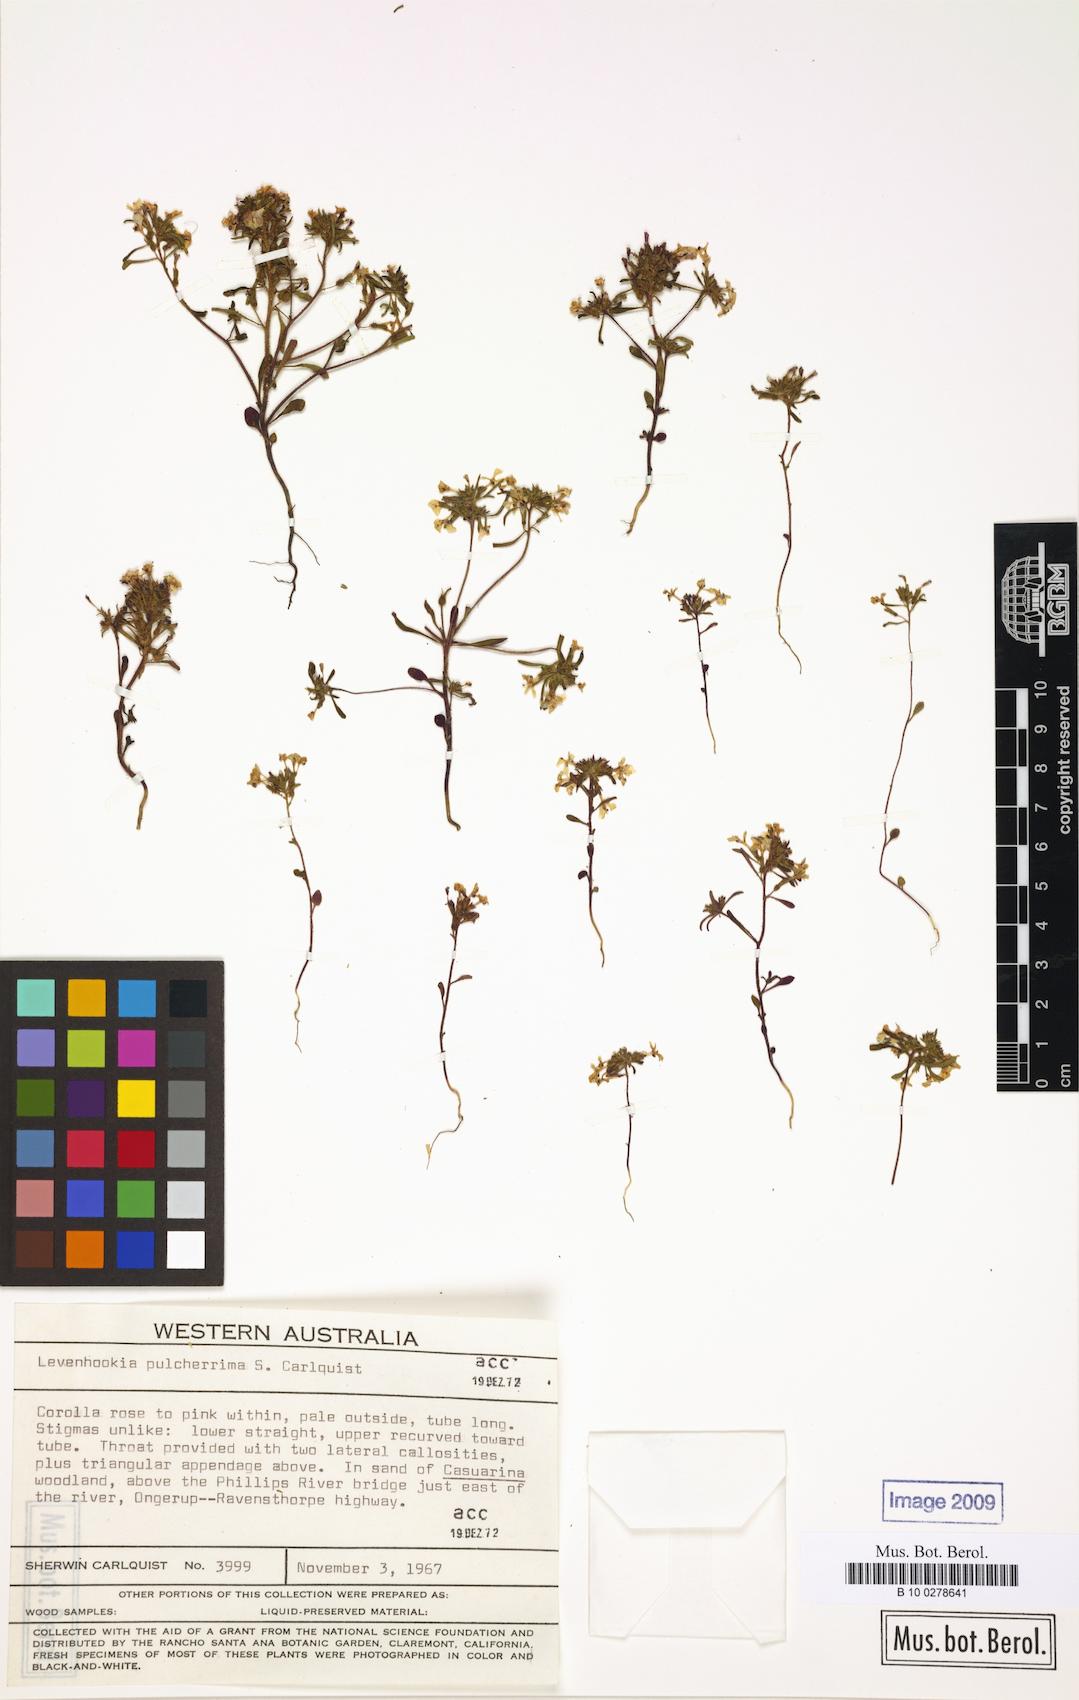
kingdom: Plantae
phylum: Tracheophyta
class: Magnoliopsida
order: Asterales
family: Stylidiaceae
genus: Levenhookia
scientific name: Levenhookia pulcherrima
